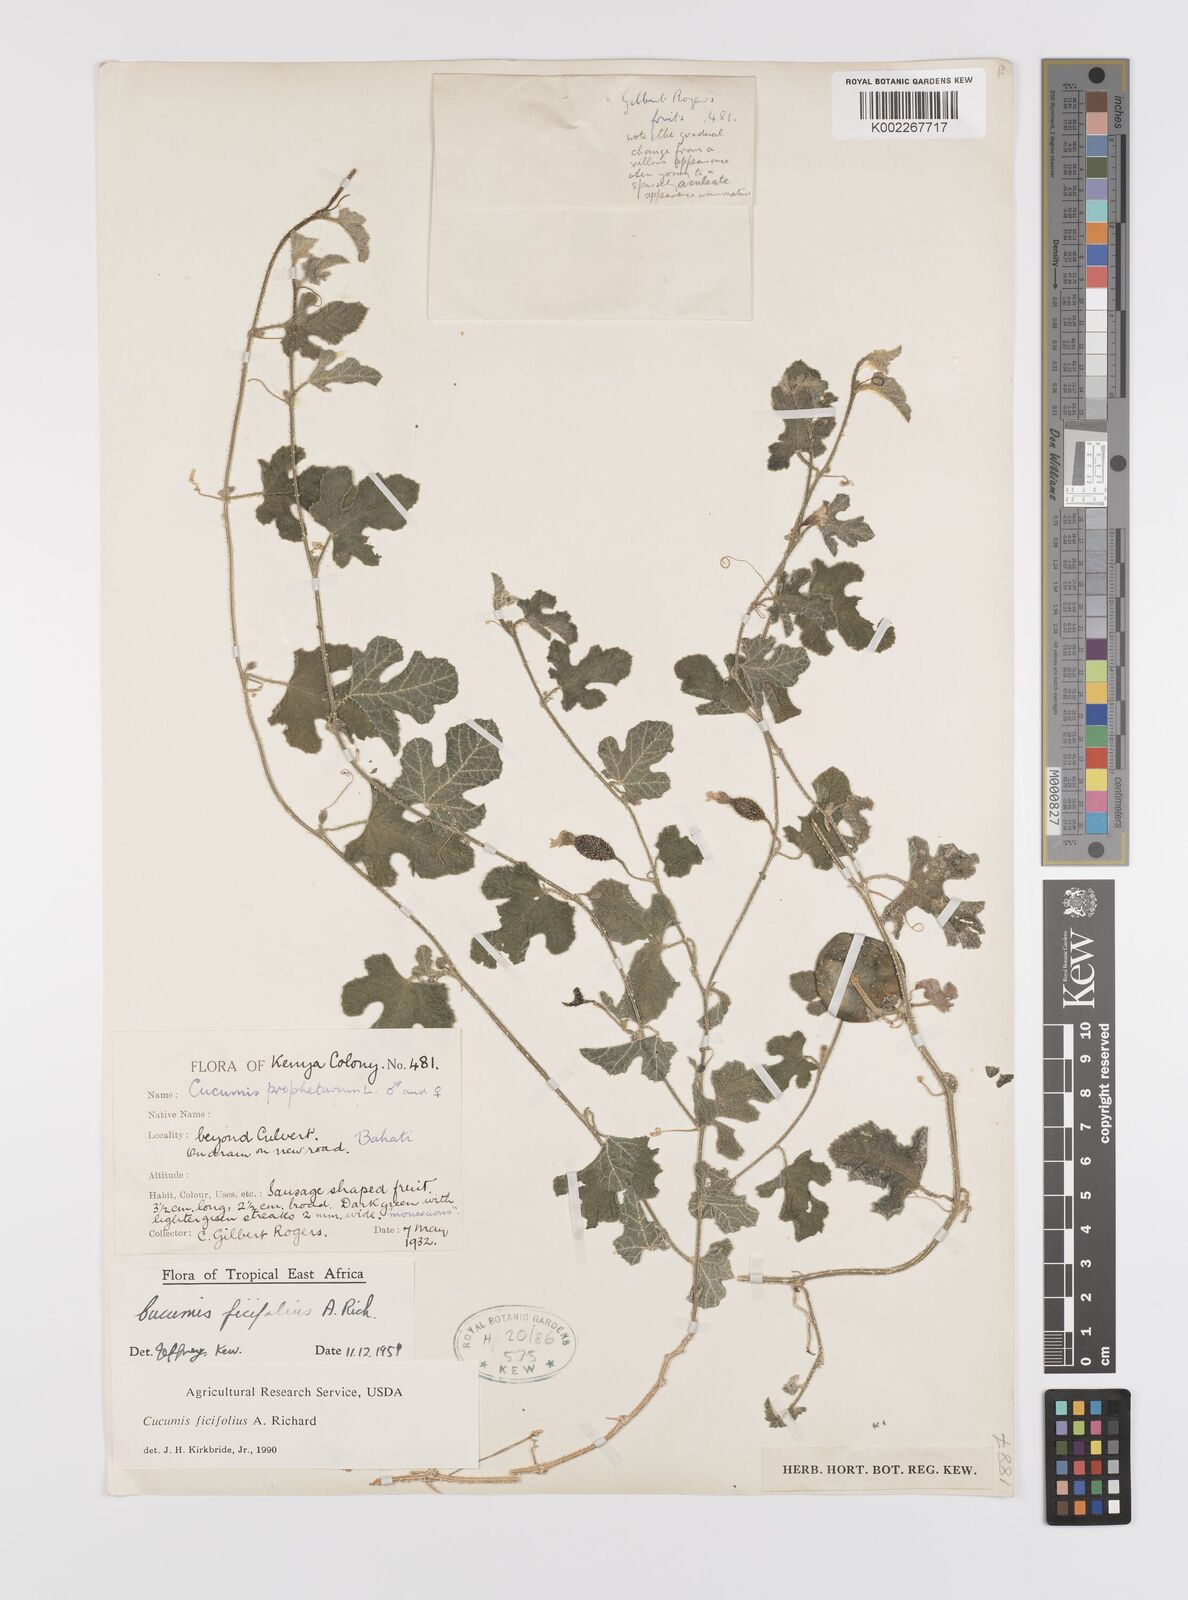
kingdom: Plantae
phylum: Tracheophyta
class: Magnoliopsida
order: Cucurbitales
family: Cucurbitaceae
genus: Cucumis
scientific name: Cucumis ficifolius
